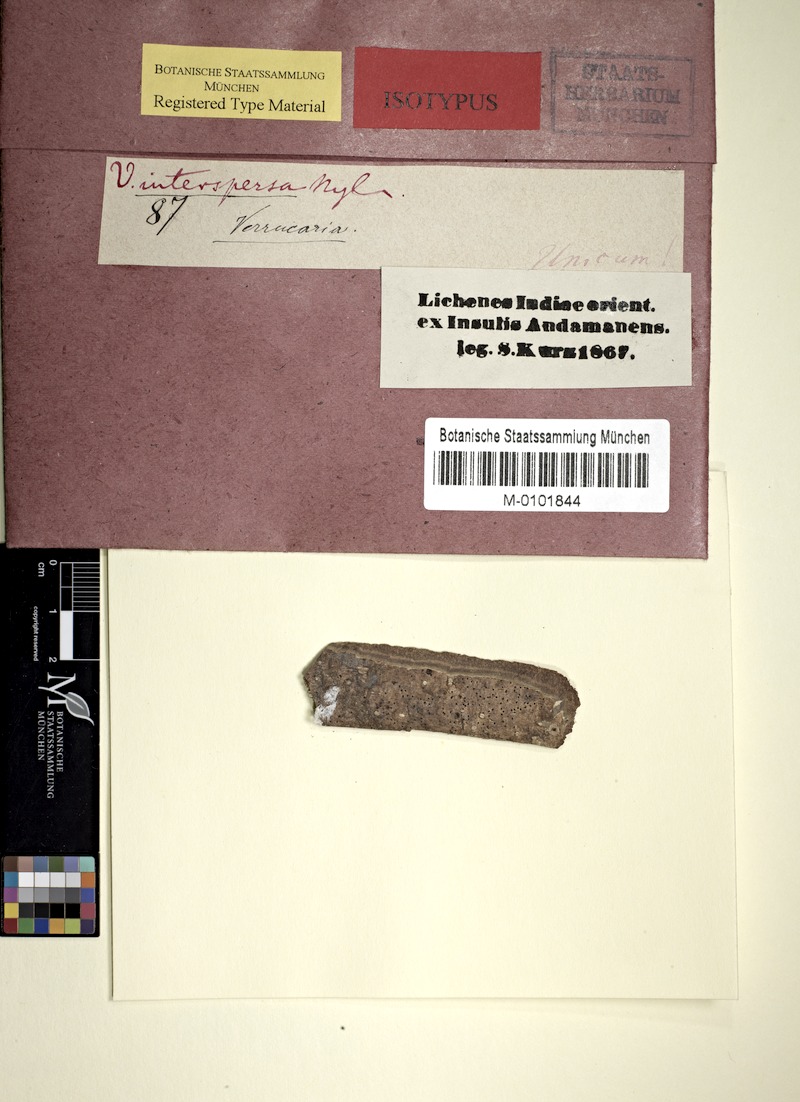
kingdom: Fungi
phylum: Ascomycota
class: Dothideomycetes
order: Monoblastiales
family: Monoblastiaceae
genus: Anisomeridium
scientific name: Anisomeridium
